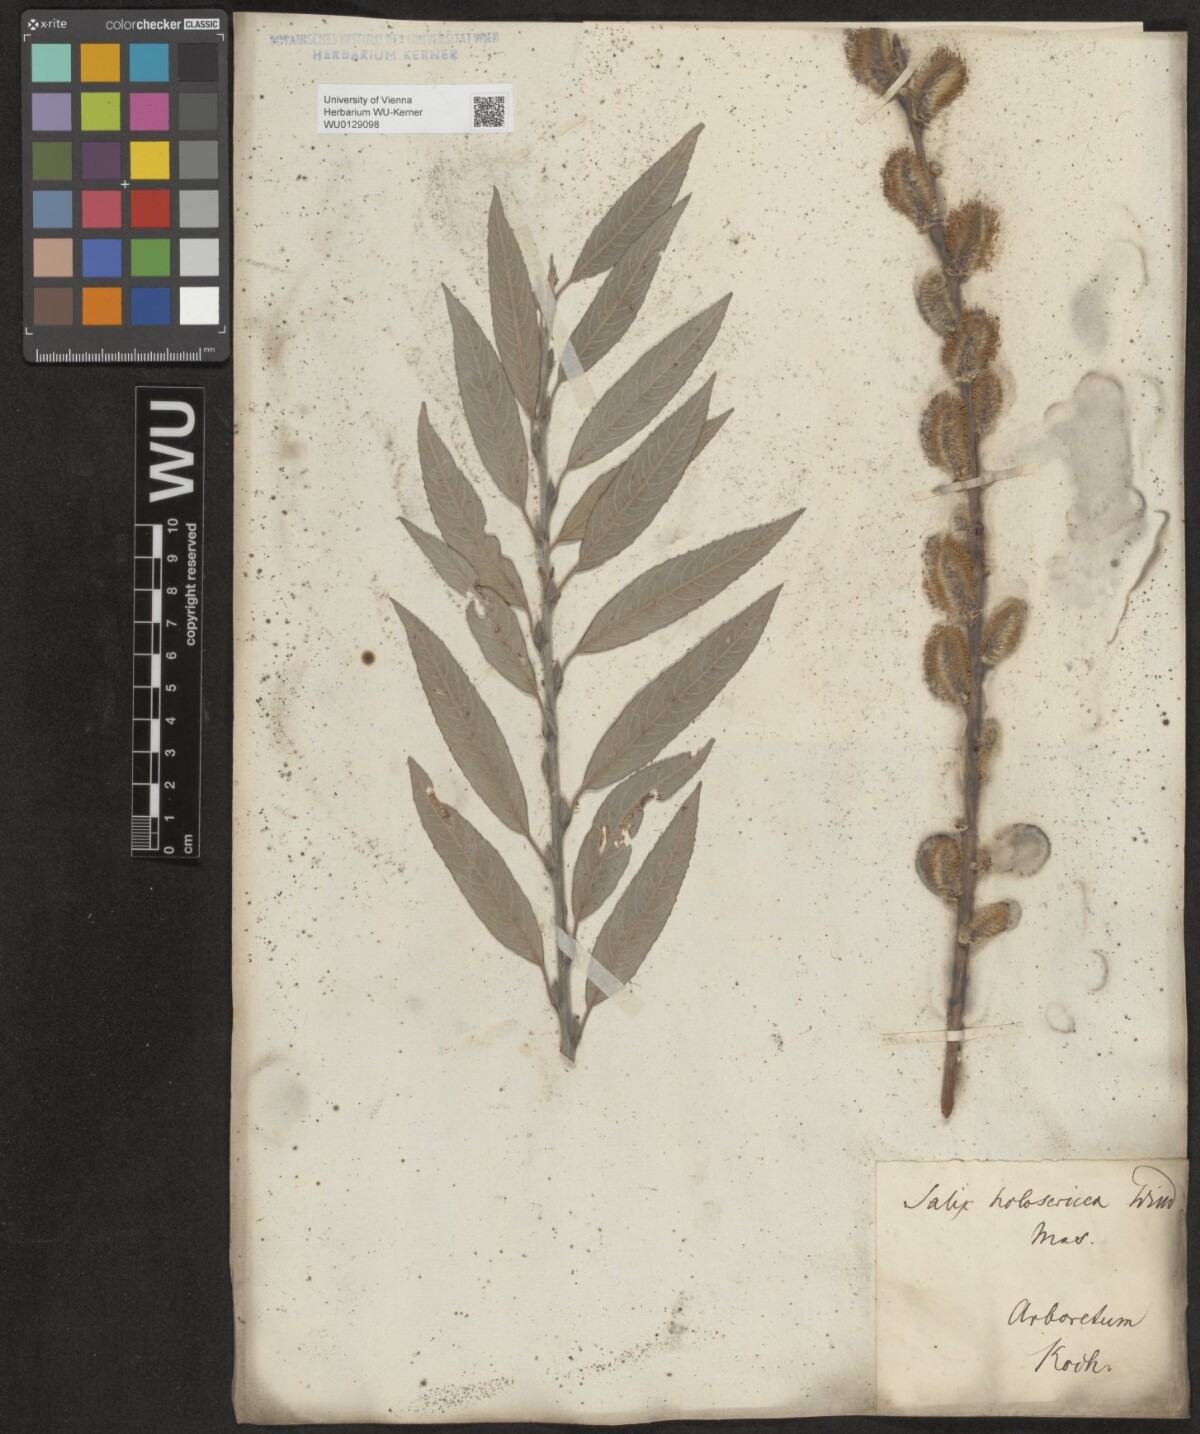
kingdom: Plantae
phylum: Tracheophyta
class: Magnoliopsida
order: Malpighiales
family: Salicaceae
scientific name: Salicaceae
